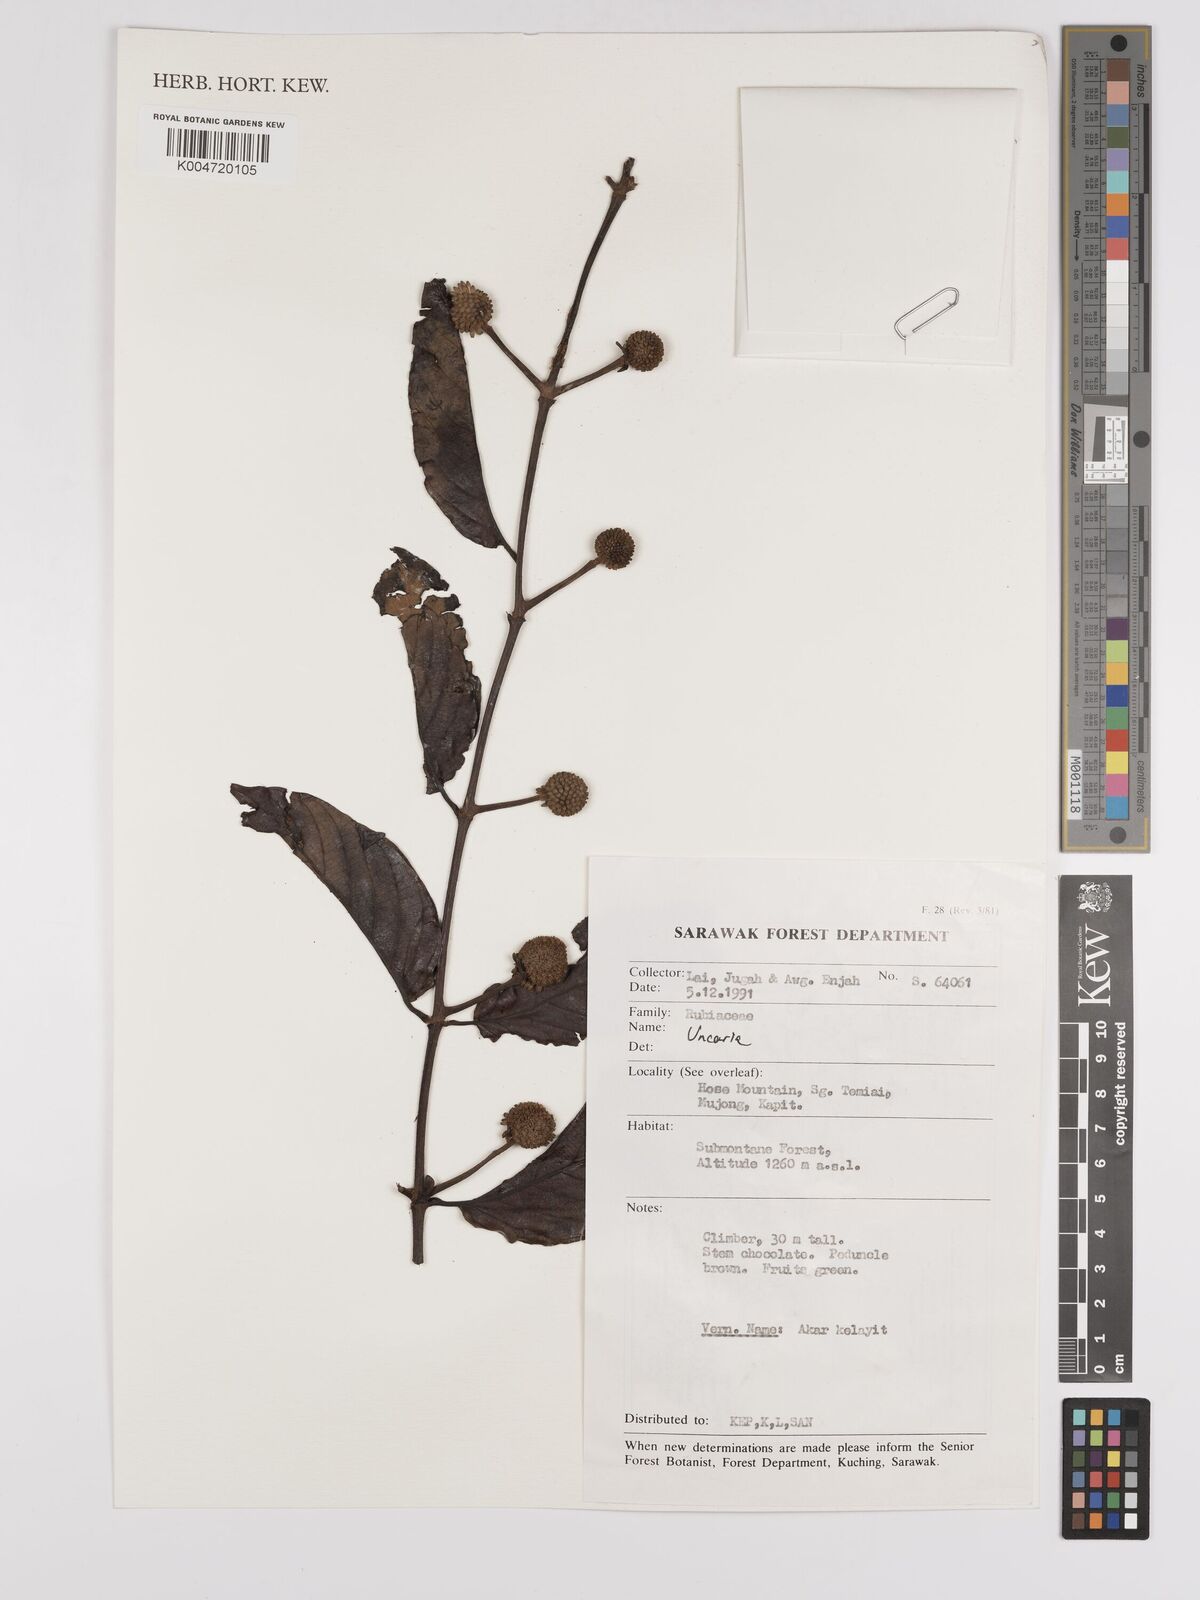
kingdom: Plantae
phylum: Tracheophyta
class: Magnoliopsida
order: Gentianales
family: Rubiaceae
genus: Uncaria
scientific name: Uncaria
